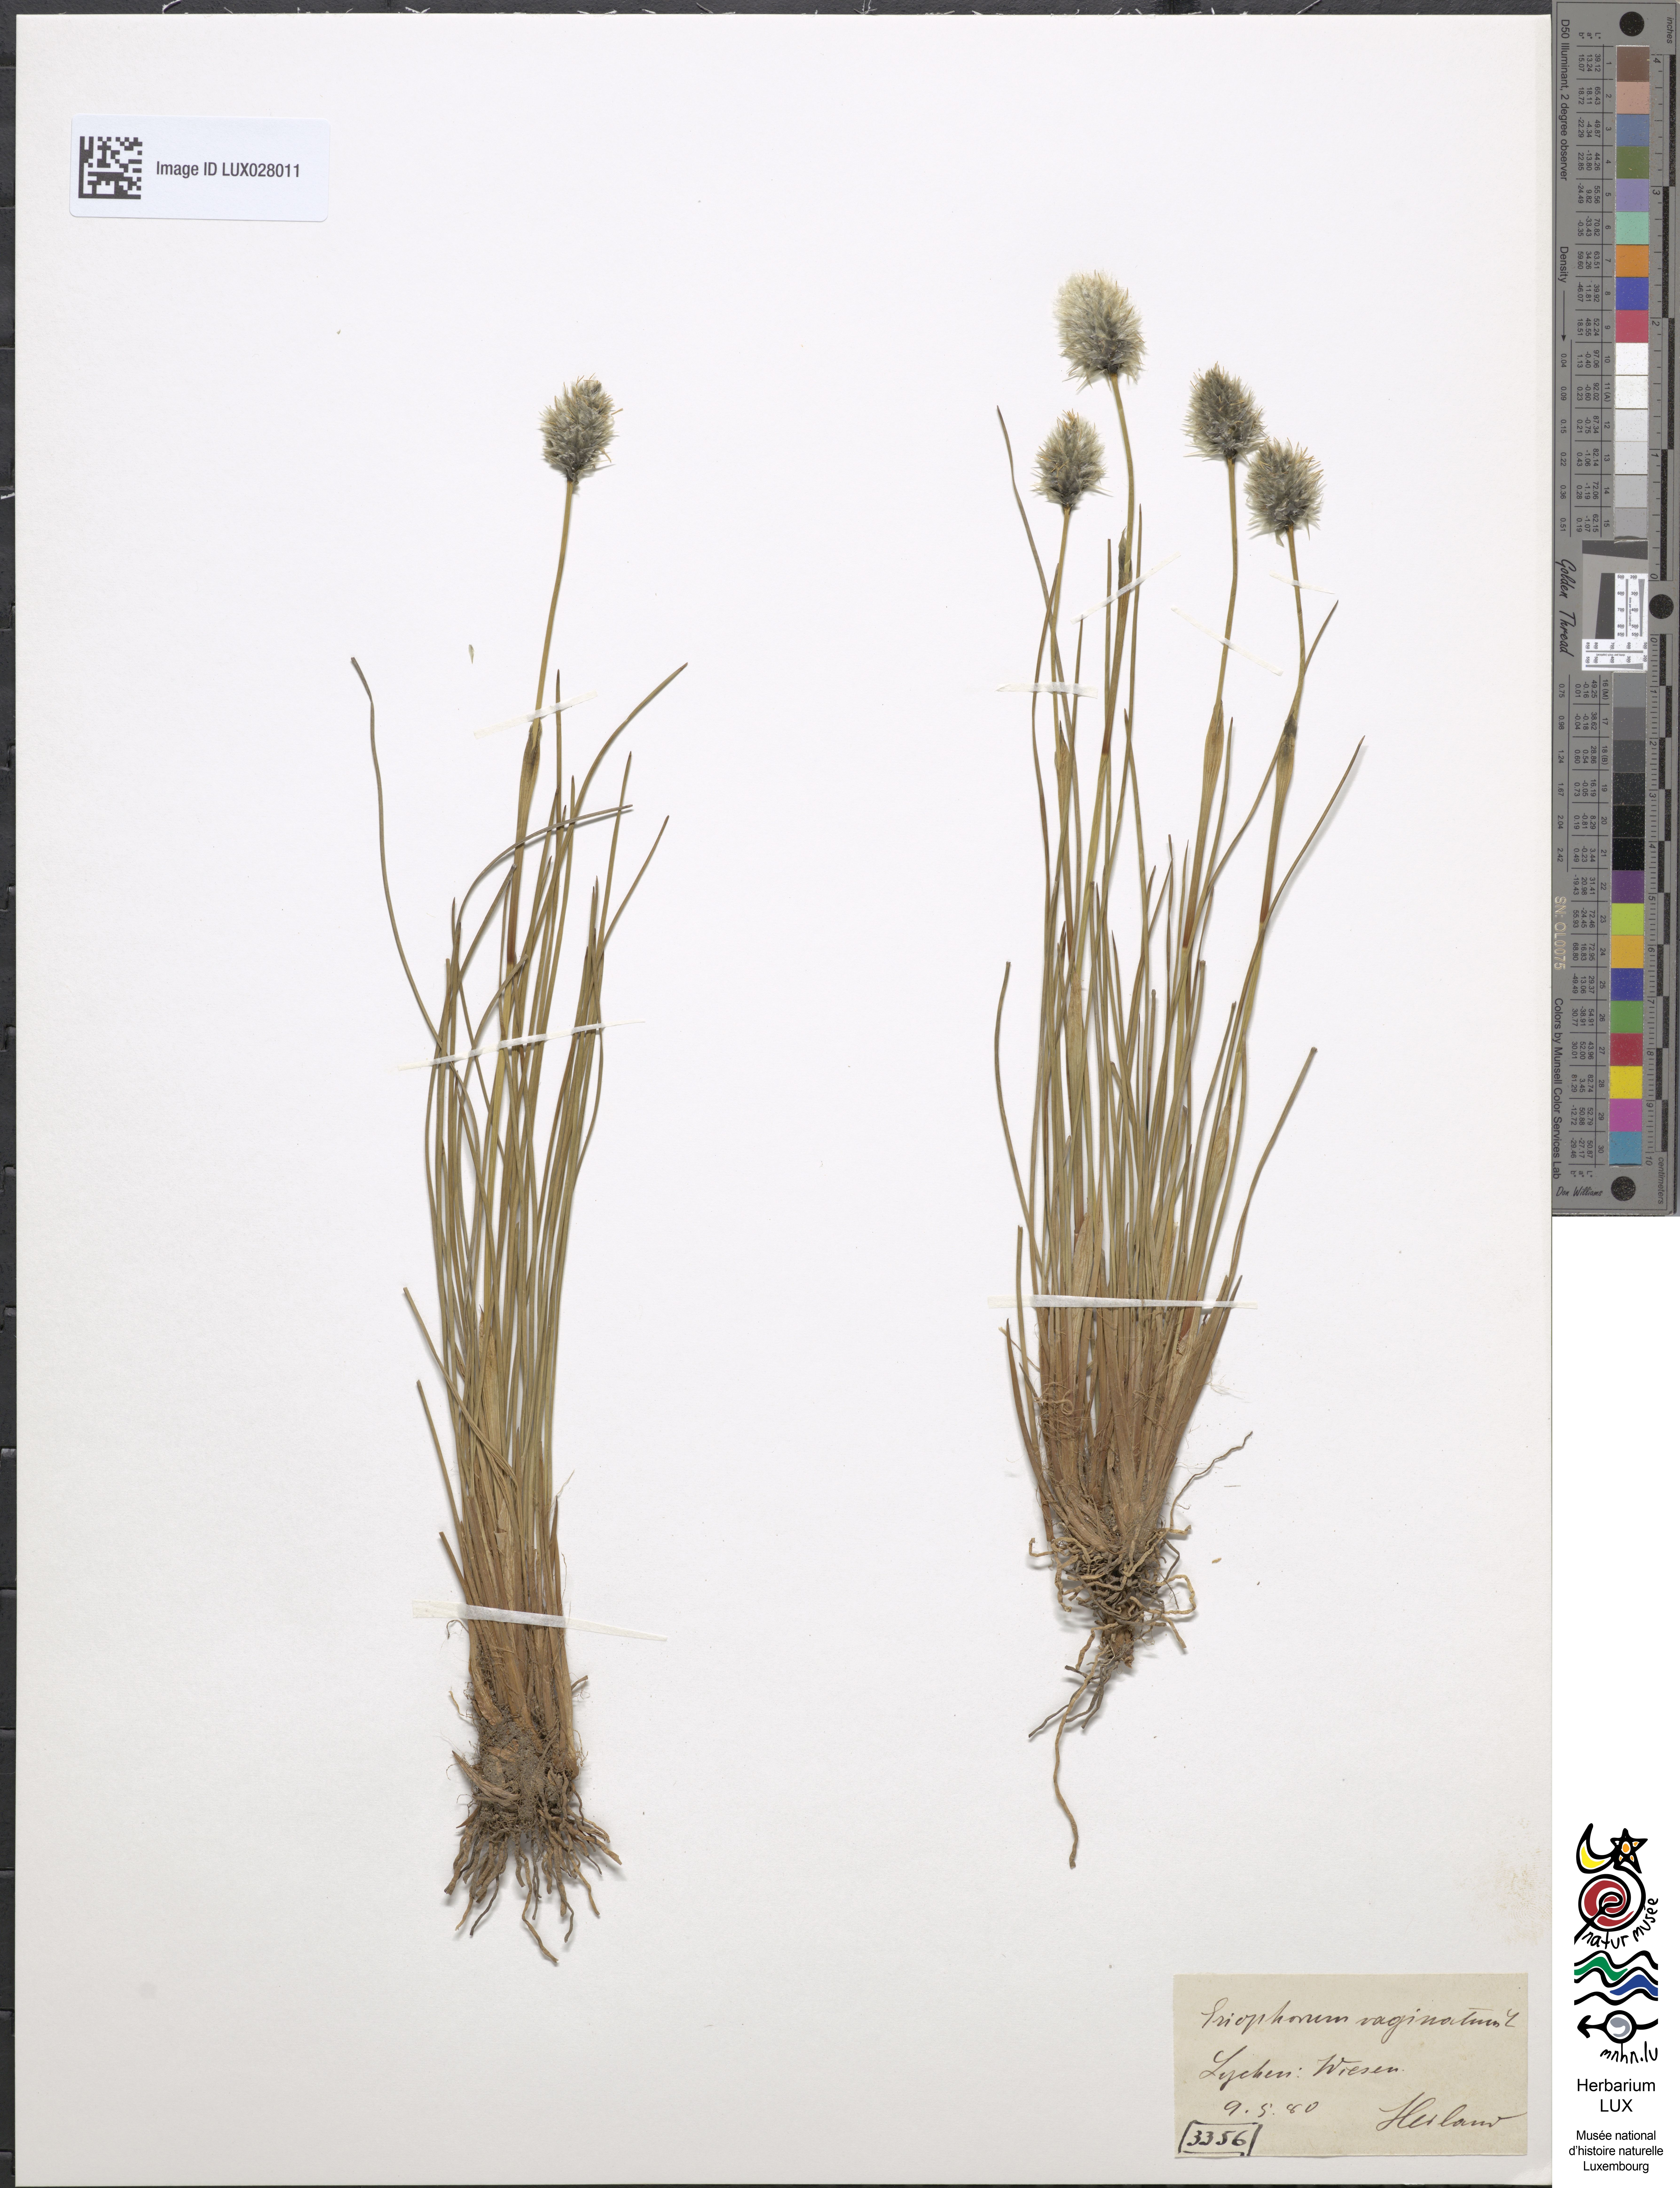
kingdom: Plantae
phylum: Tracheophyta
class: Liliopsida
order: Poales
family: Cyperaceae
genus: Eriophorum
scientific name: Eriophorum vaginatum
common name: Hare's-tail cottongrass
